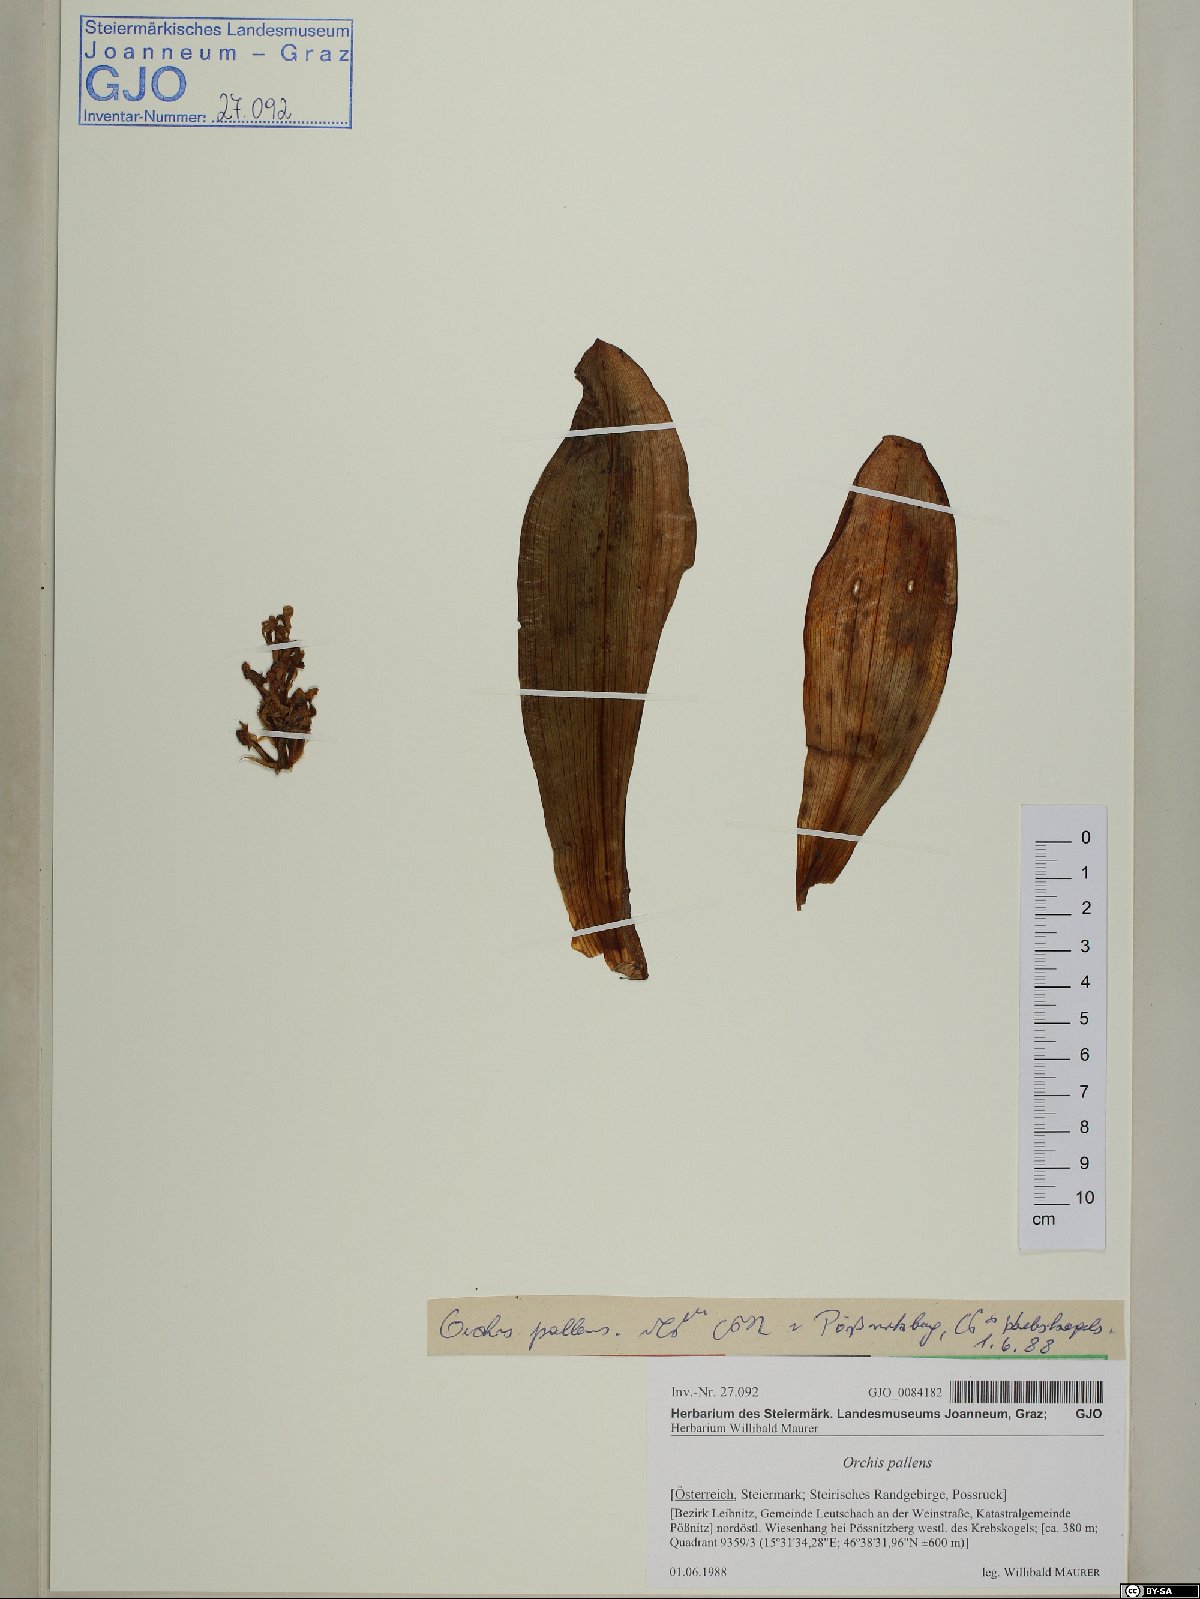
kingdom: Plantae
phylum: Tracheophyta
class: Liliopsida
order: Asparagales
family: Orchidaceae
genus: Orchis
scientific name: Orchis pallens
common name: Pale-flowered orchid
